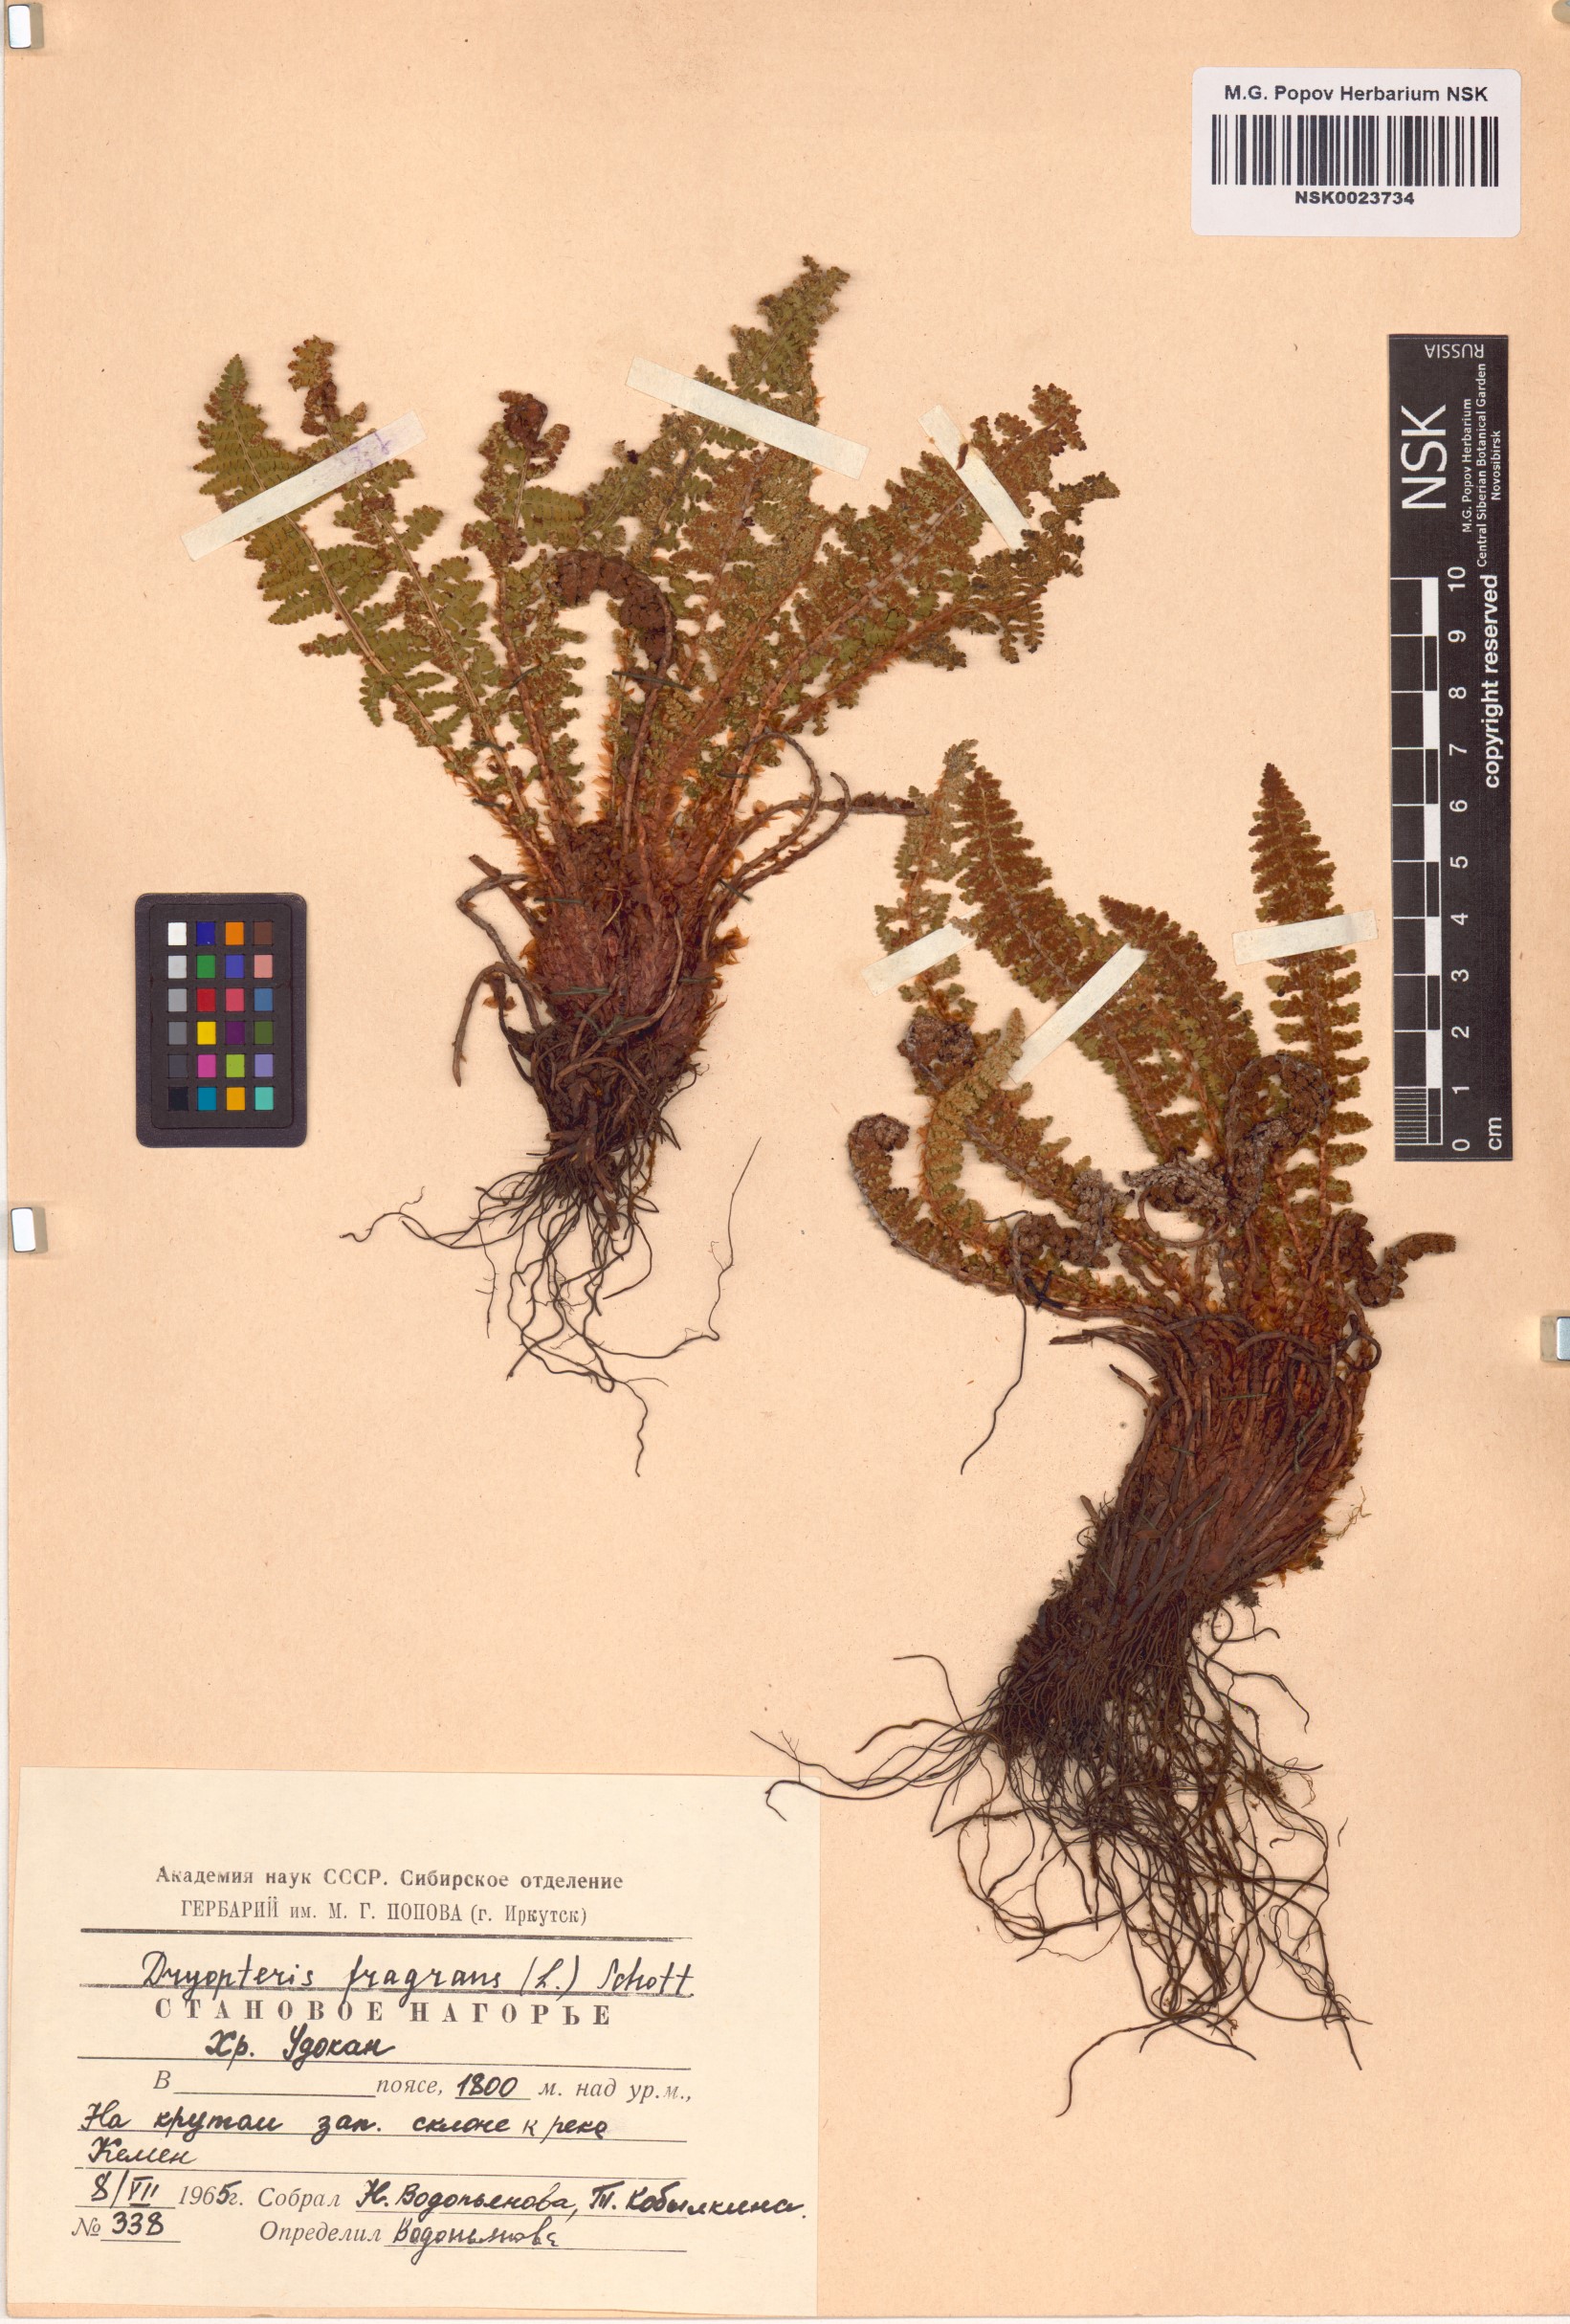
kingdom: Plantae
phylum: Tracheophyta
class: Polypodiopsida
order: Polypodiales
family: Dryopteridaceae
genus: Dryopteris
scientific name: Dryopteris fragrans
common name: Fragrant wood fern
